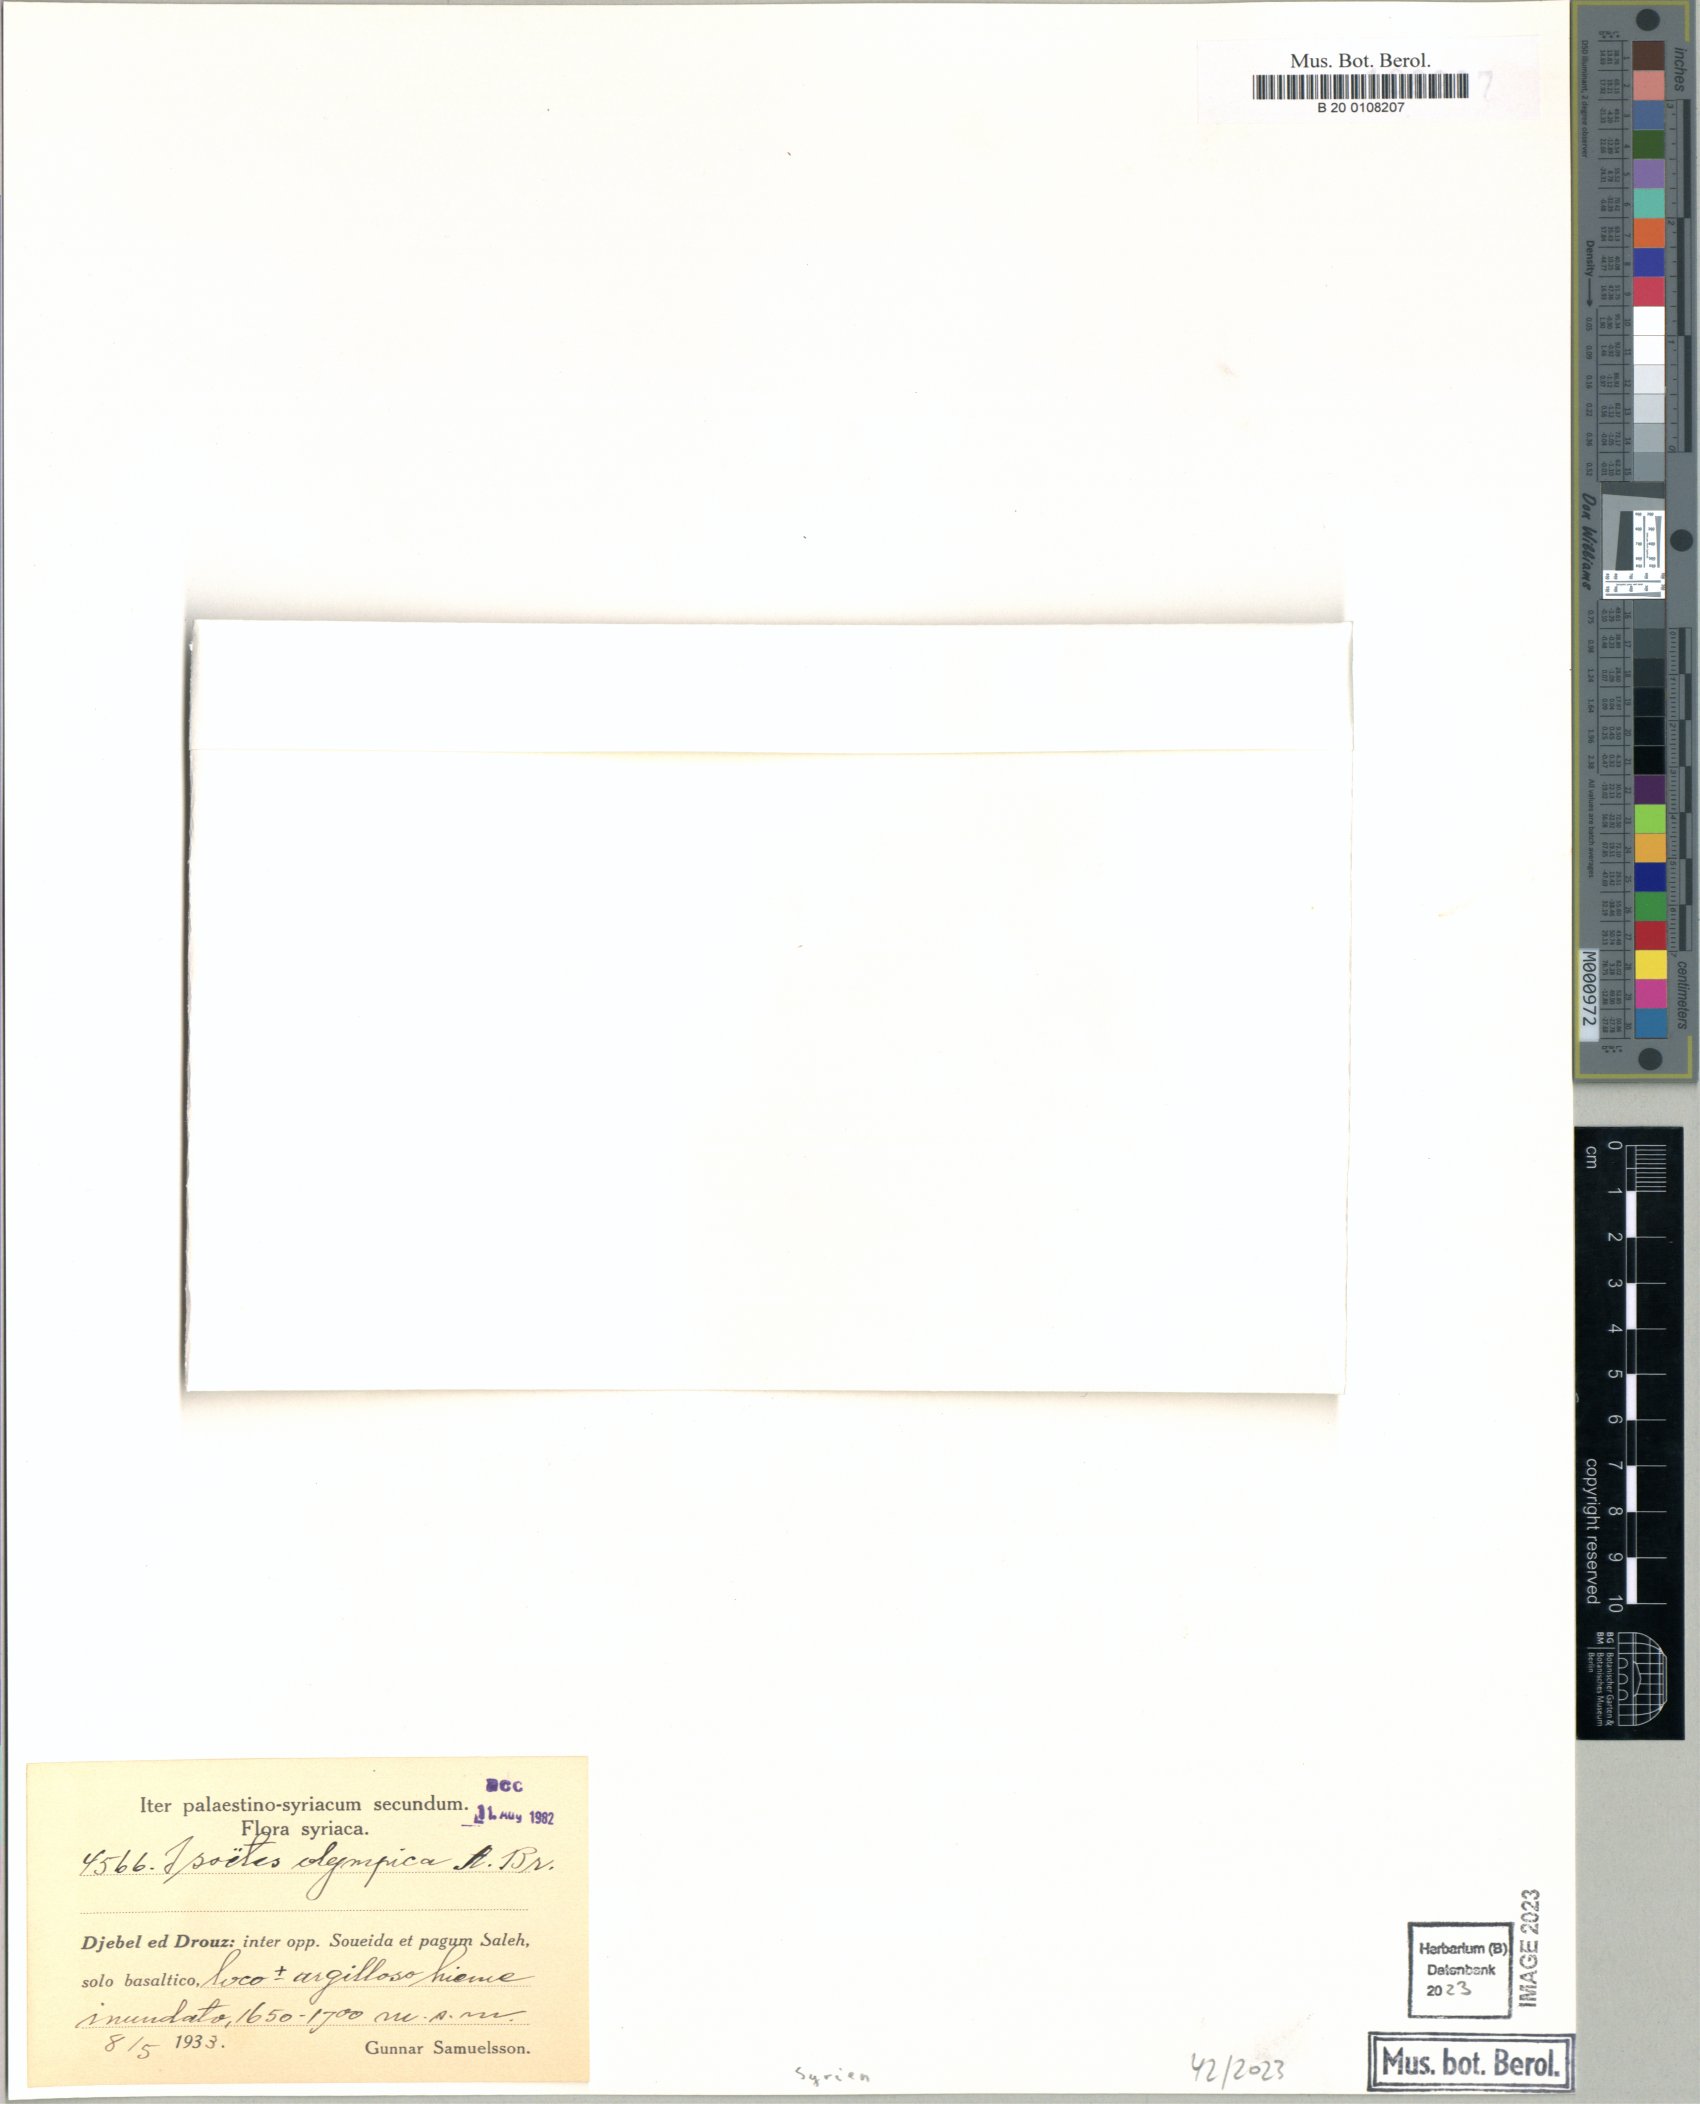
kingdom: Plantae
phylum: Tracheophyta
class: Lycopodiopsida
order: Isoetales
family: Isoetaceae
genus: Isoetes
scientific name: Isoetes olympica
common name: Olympic quillwort
